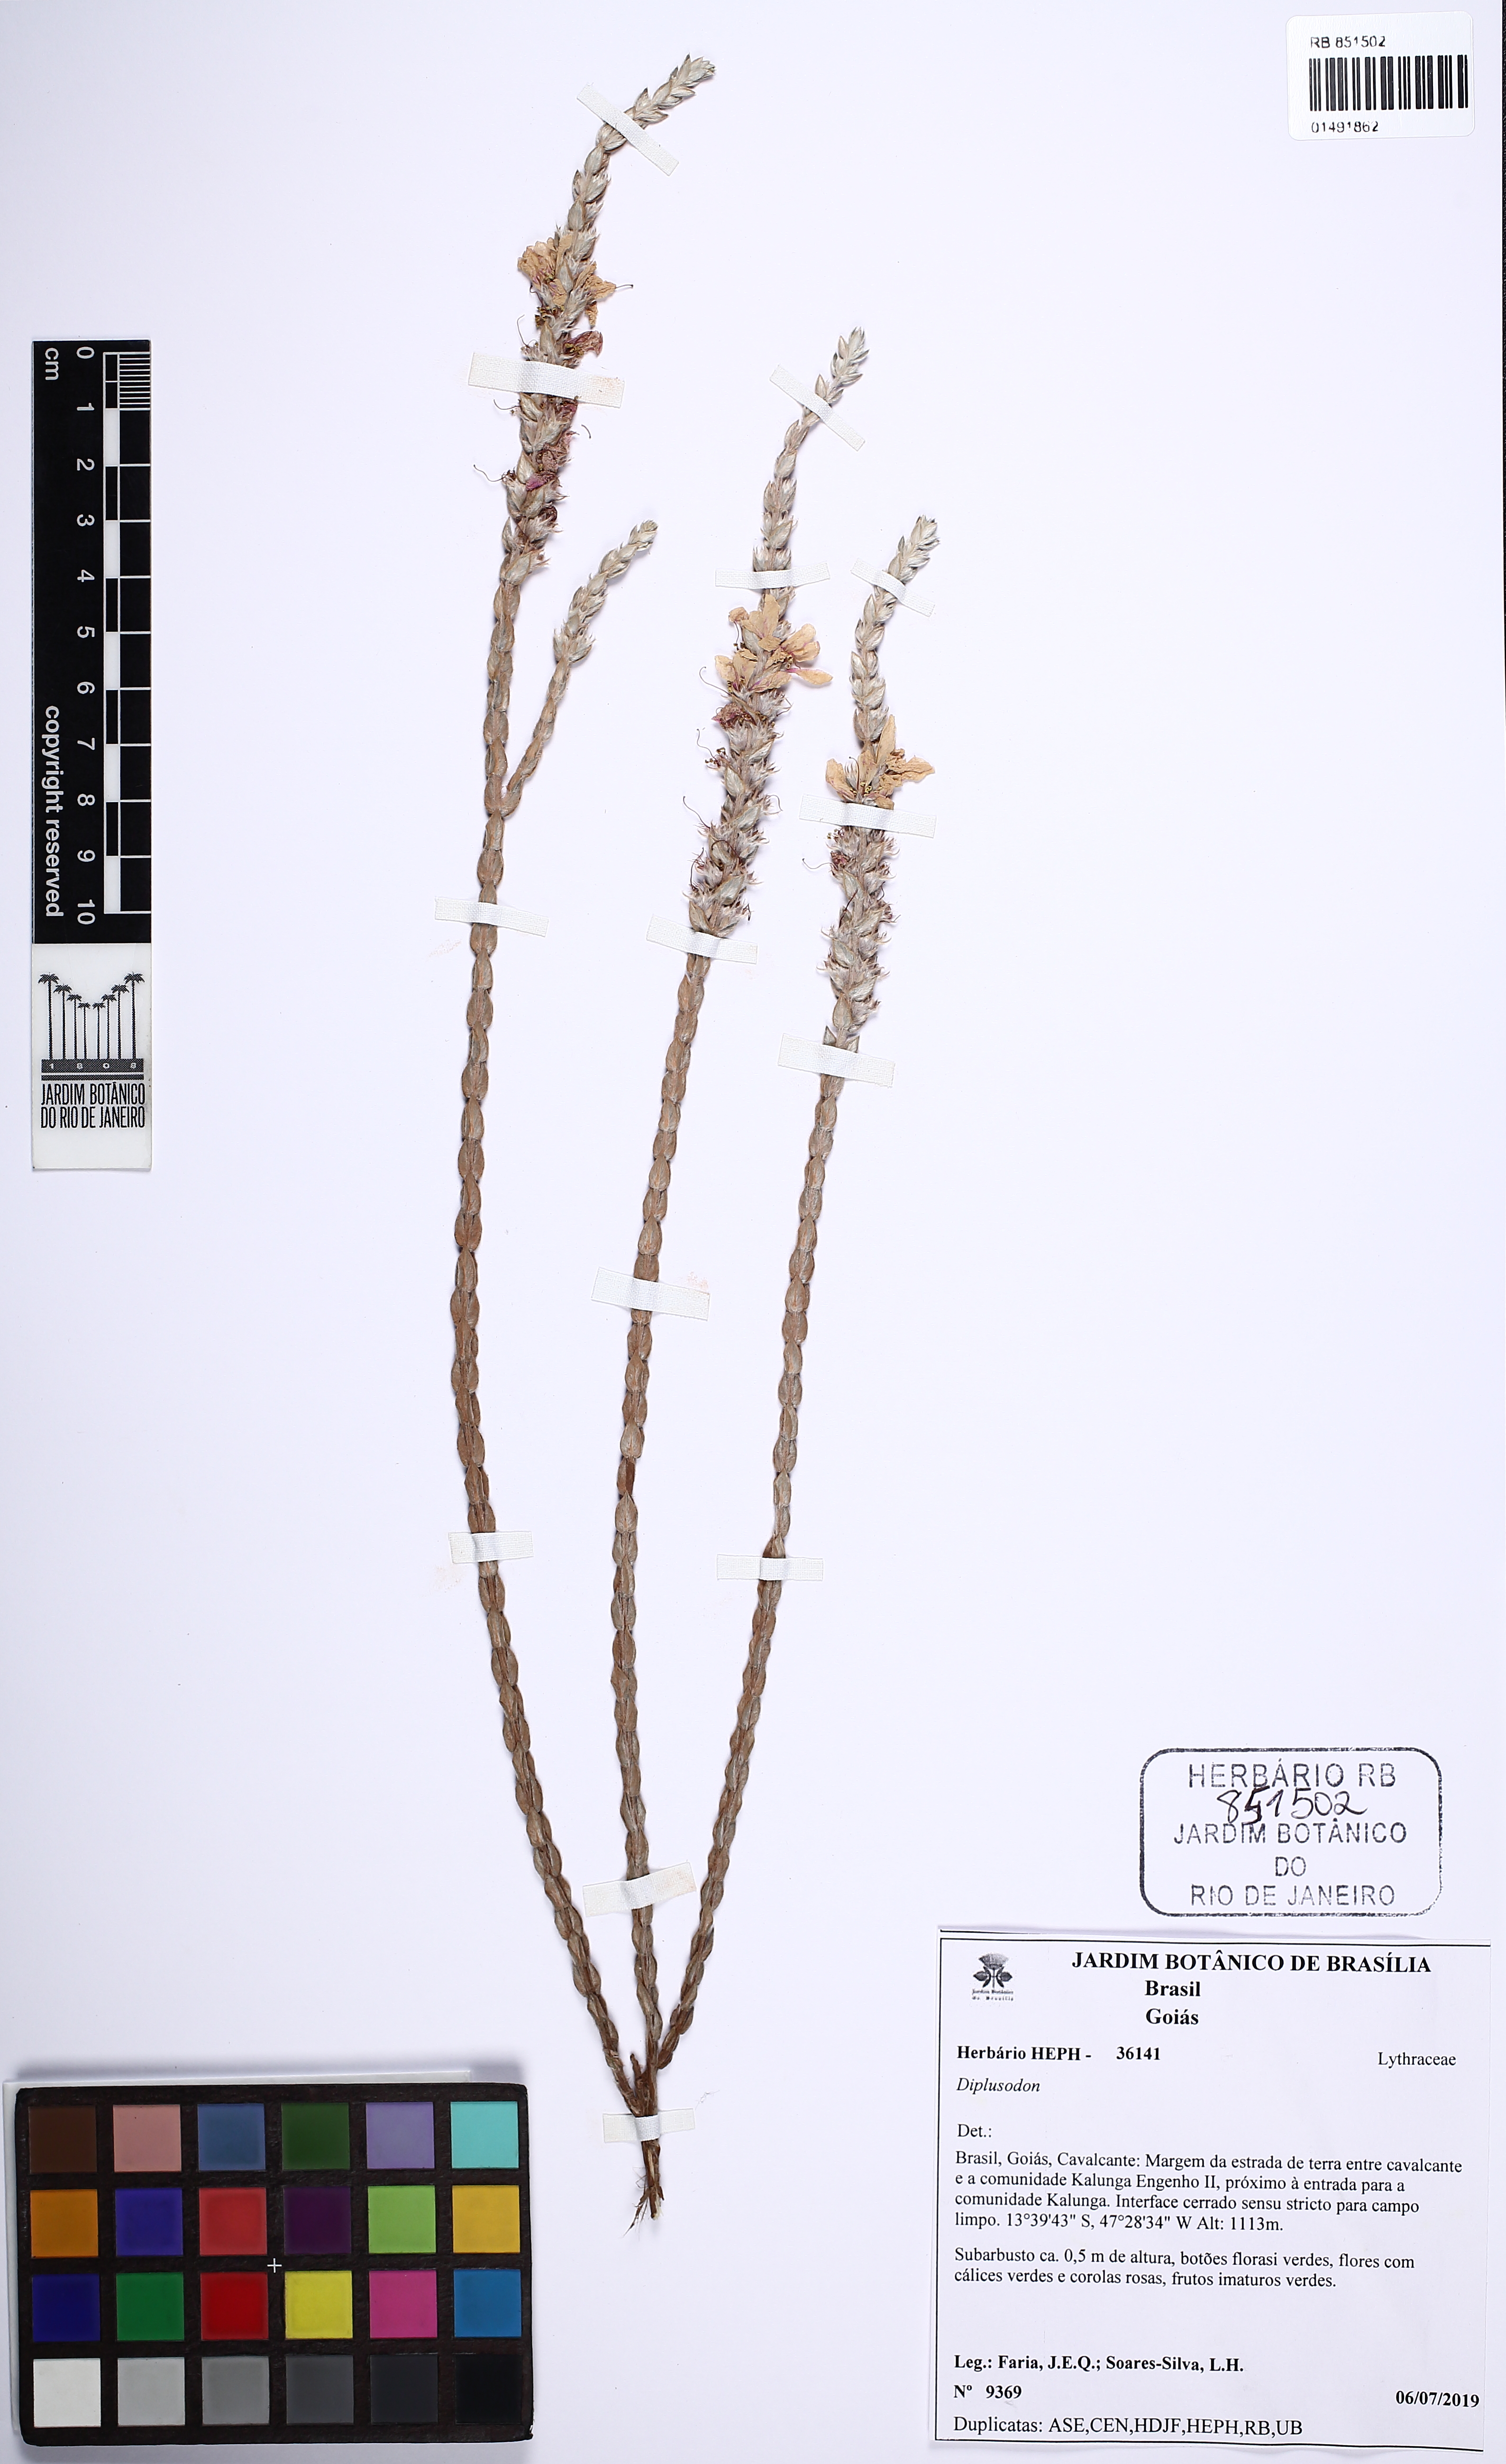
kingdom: Plantae
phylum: Tracheophyta
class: Magnoliopsida
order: Myrtales
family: Lythraceae
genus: Diplusodon
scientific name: Diplusodon
